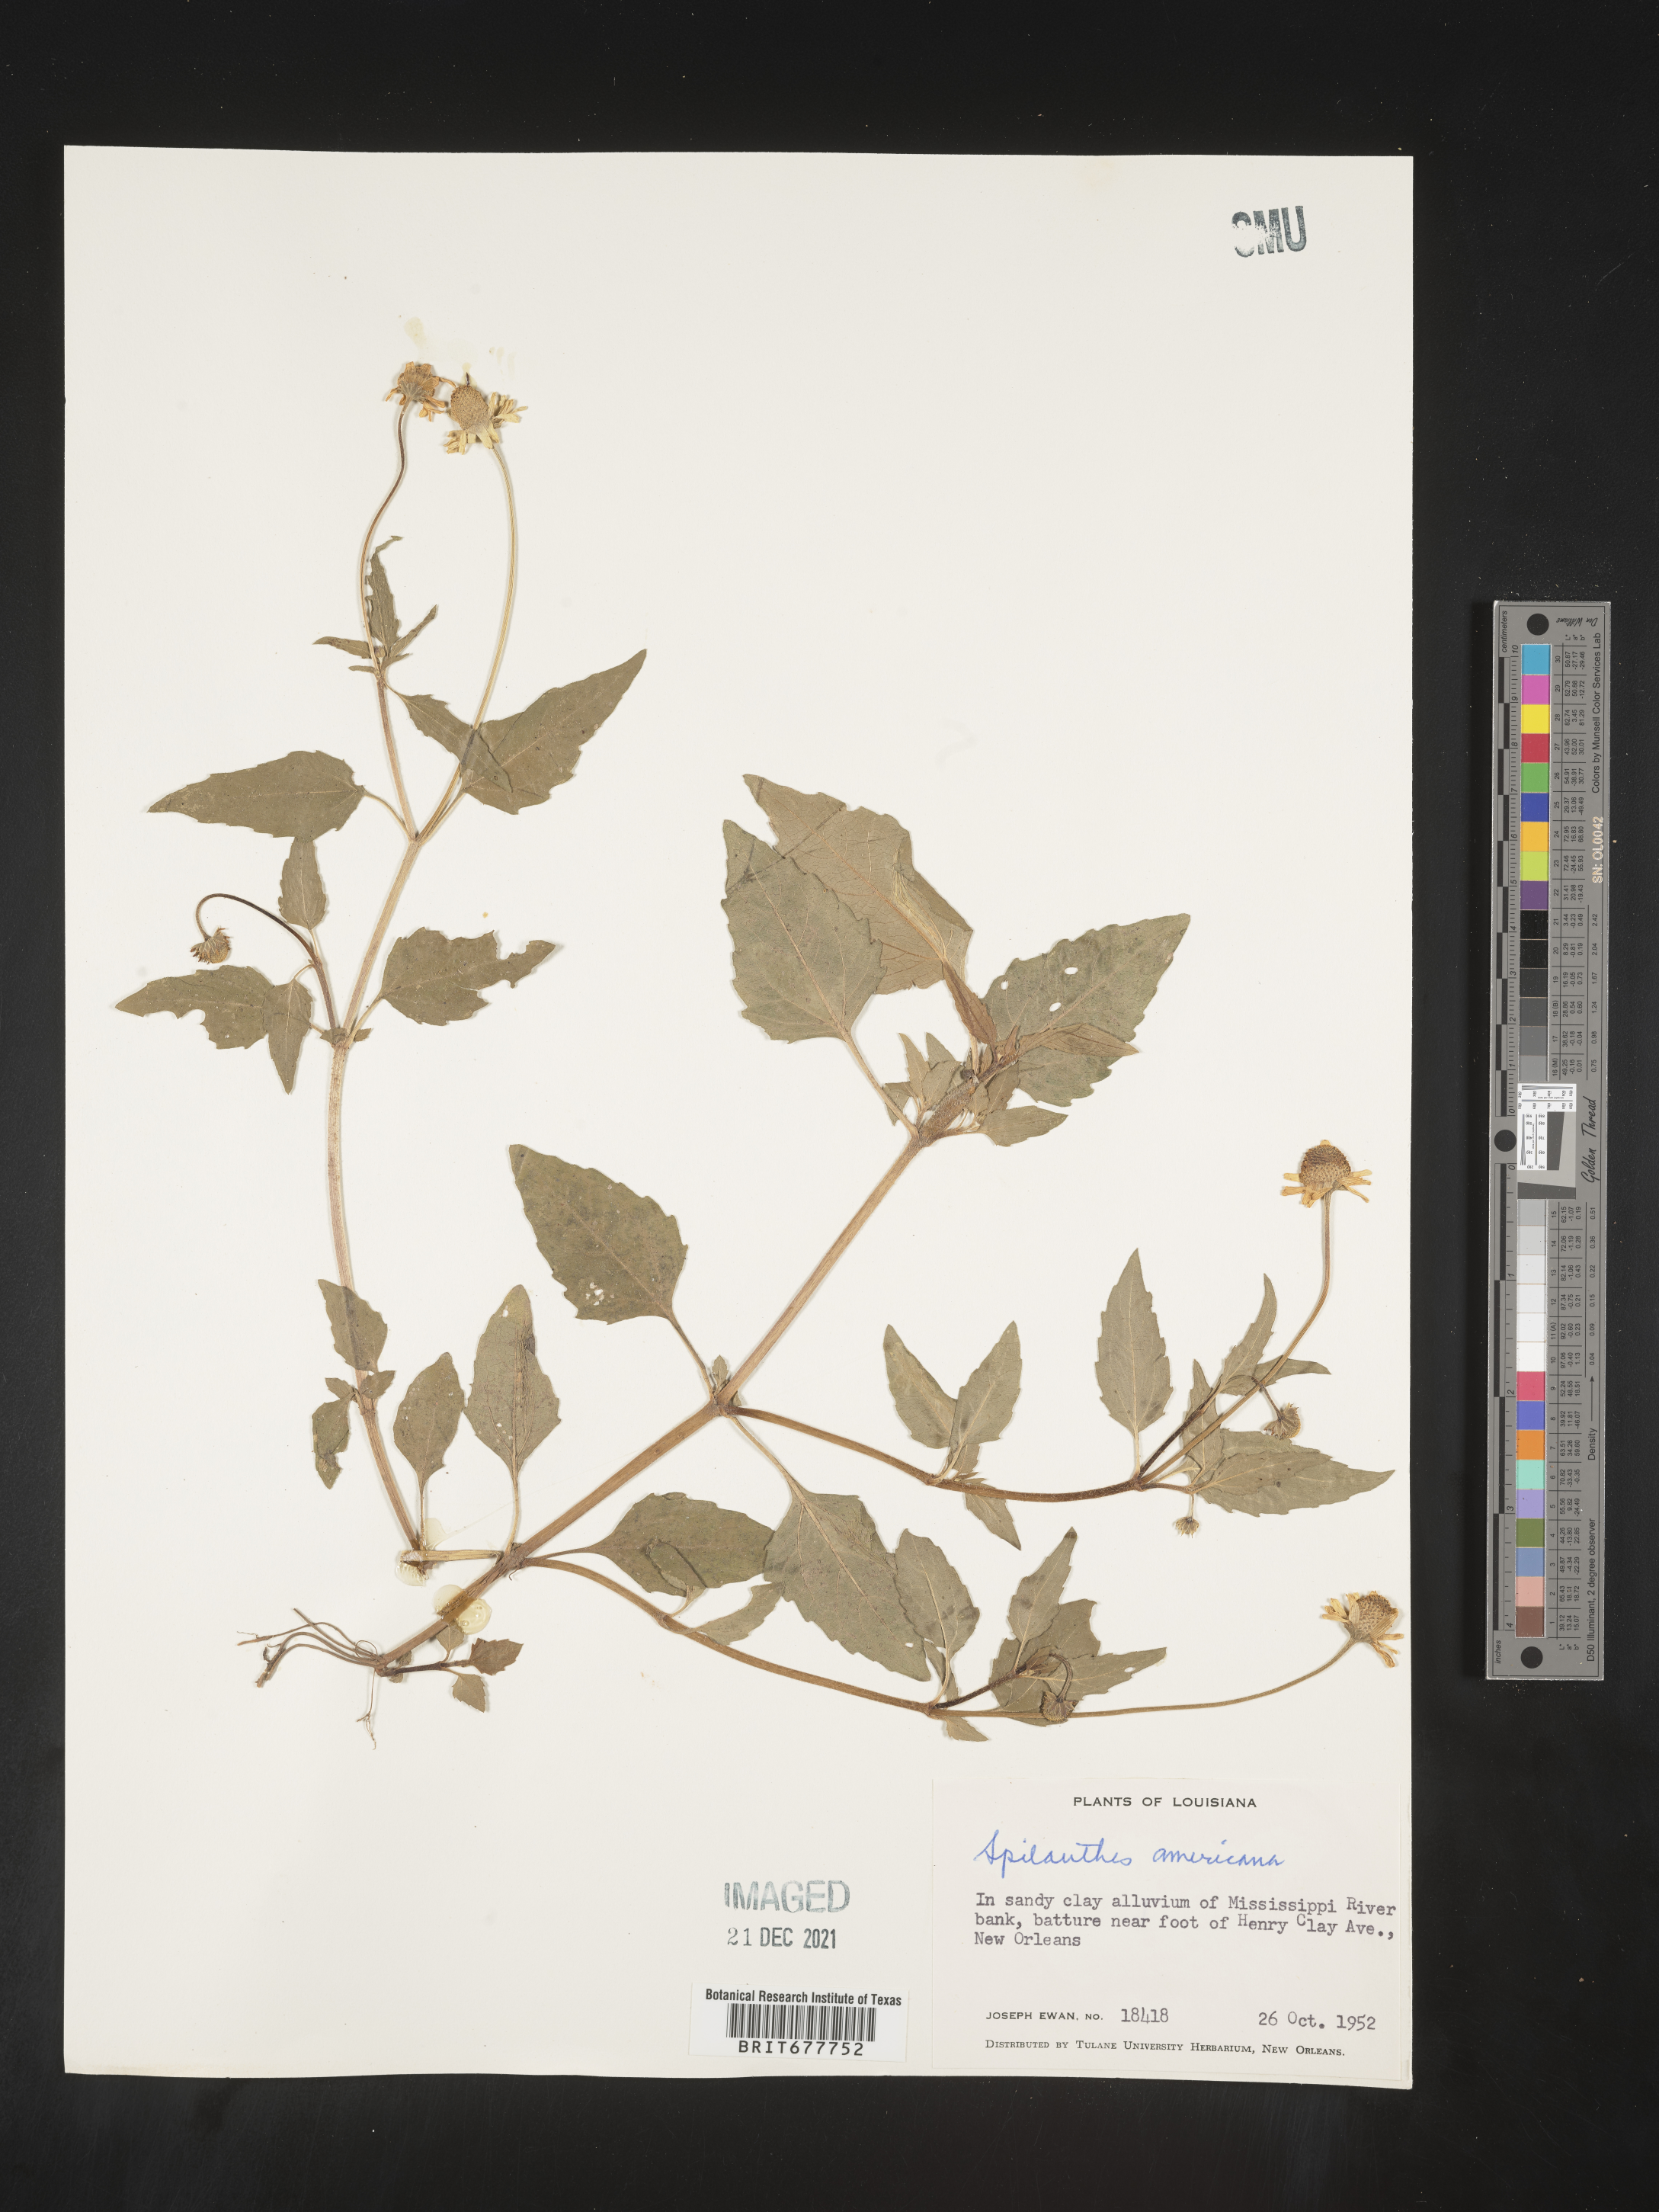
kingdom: Plantae
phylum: Tracheophyta
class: Magnoliopsida
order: Asterales
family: Asteraceae
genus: Spilanthes
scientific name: Spilanthes
